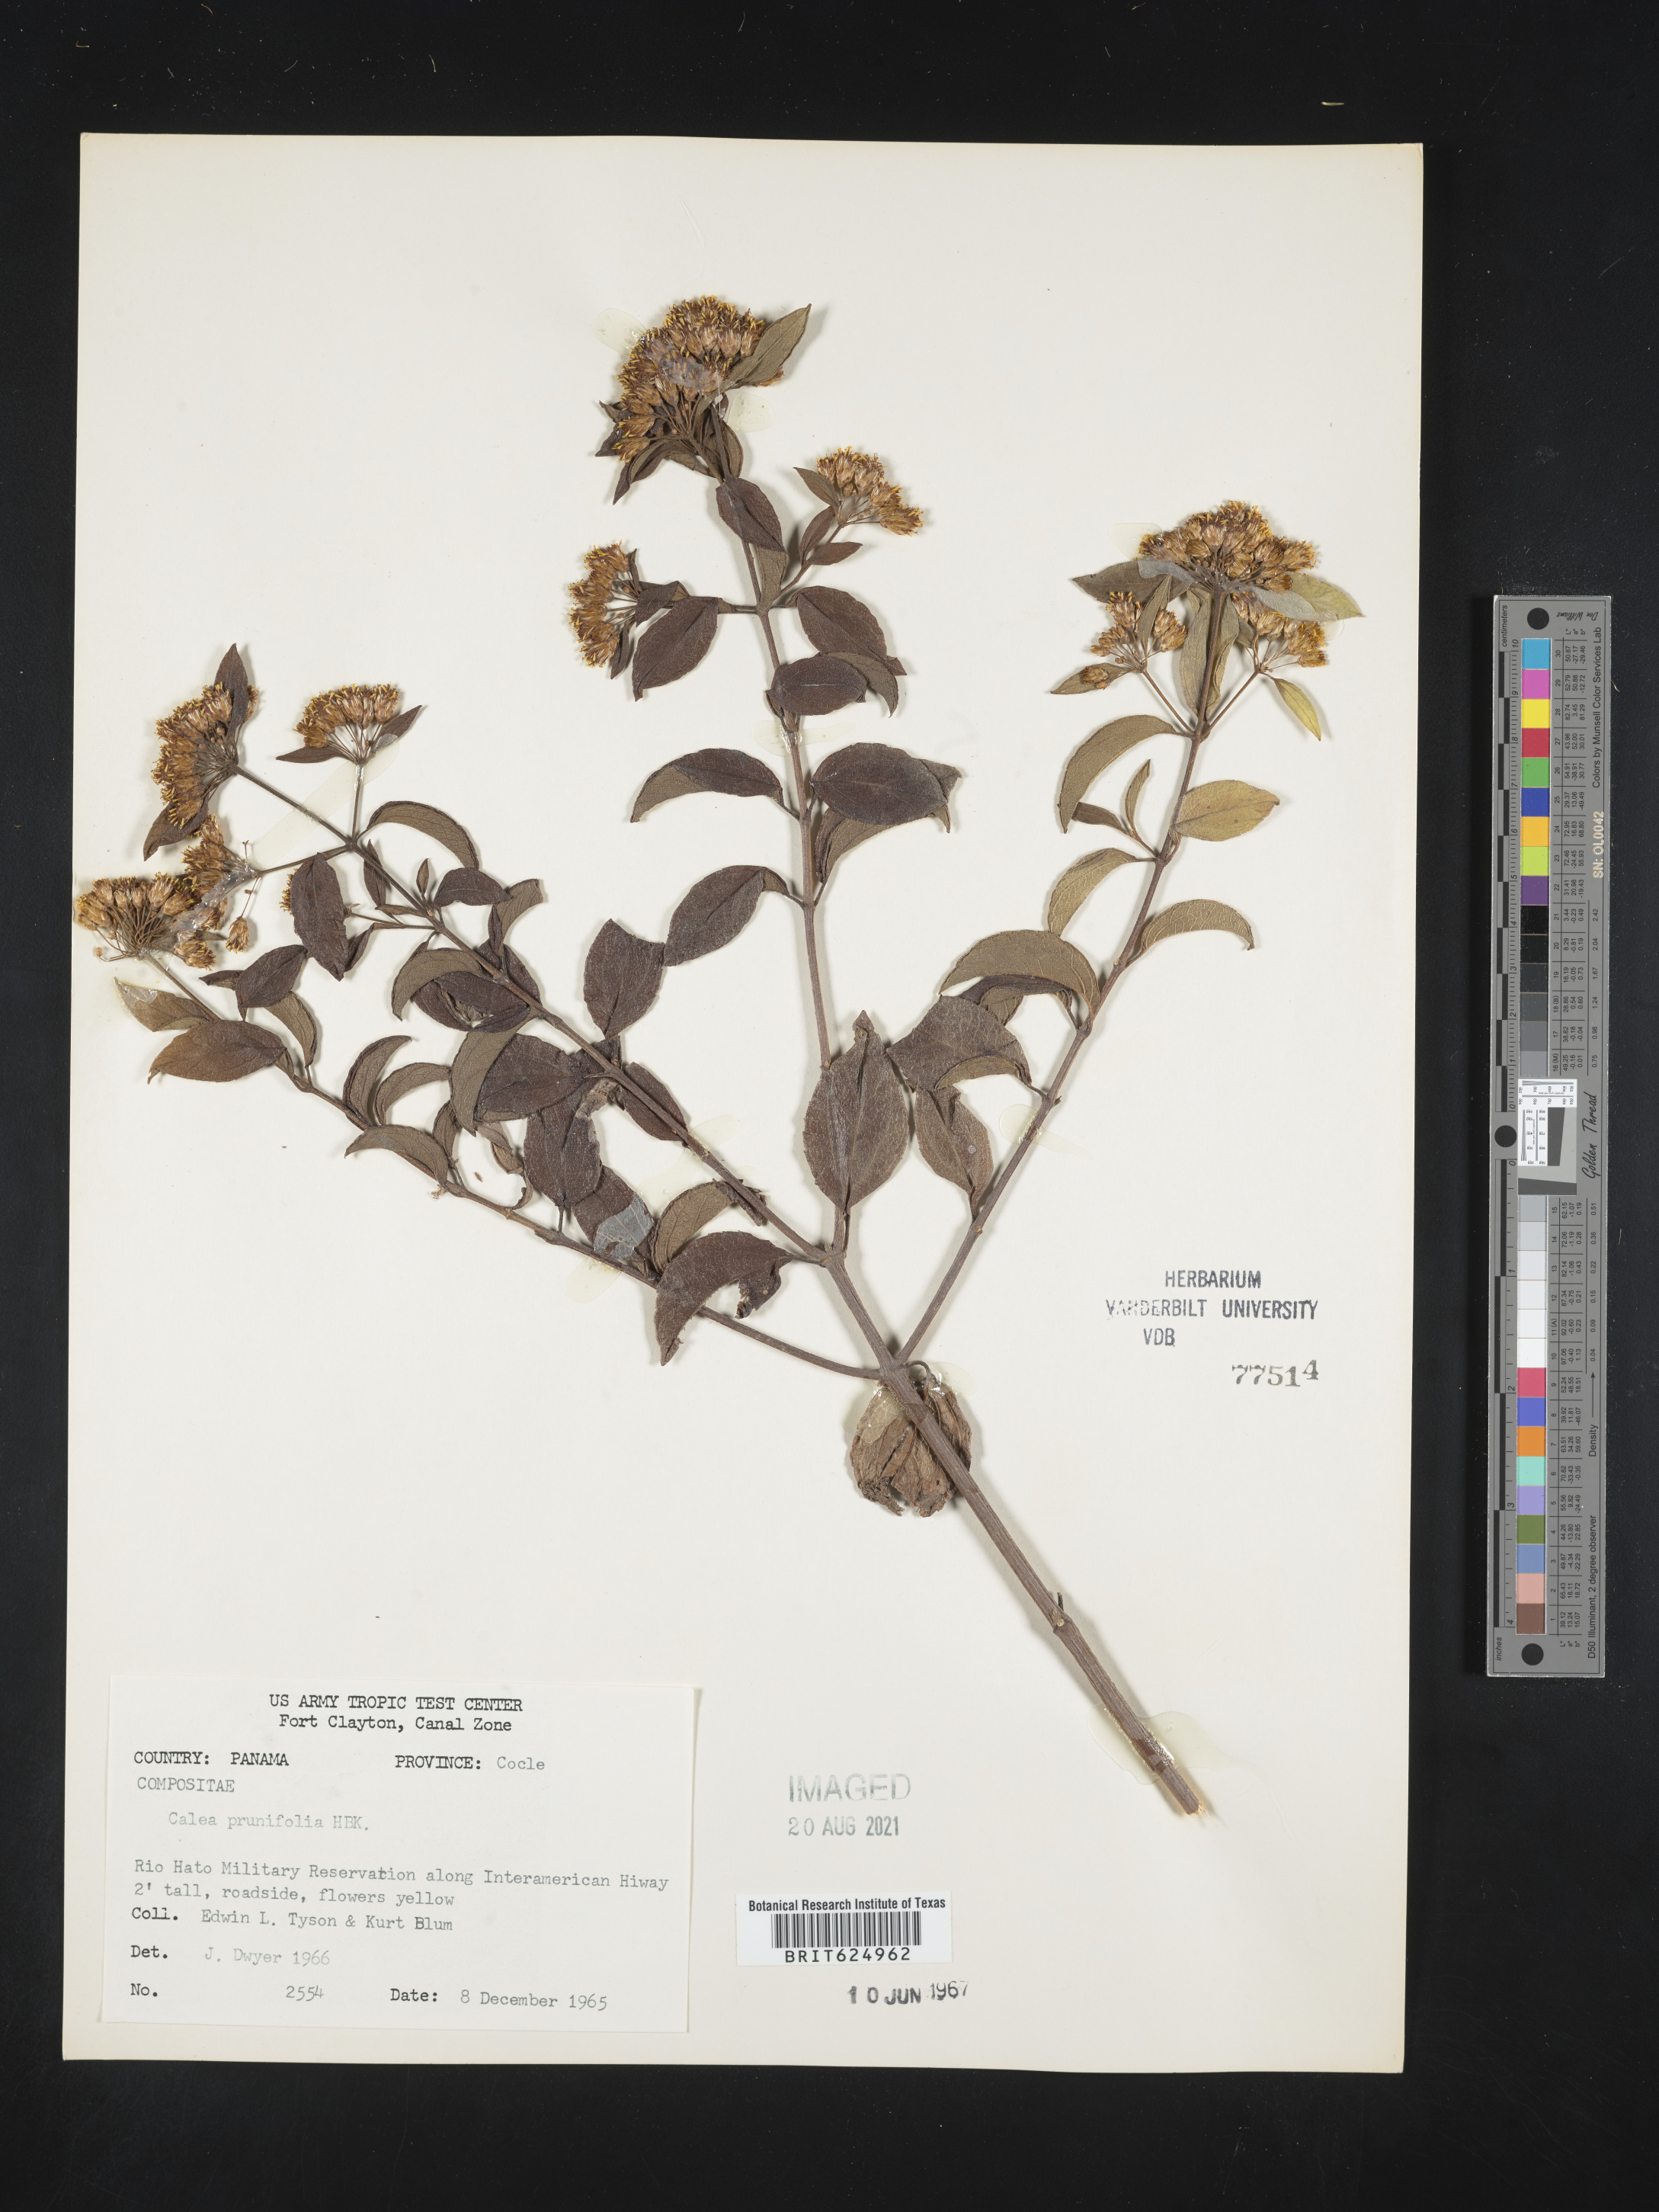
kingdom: Plantae
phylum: Tracheophyta
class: Magnoliopsida
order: Asterales
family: Asteraceae
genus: Calea
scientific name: Calea prunifolia
